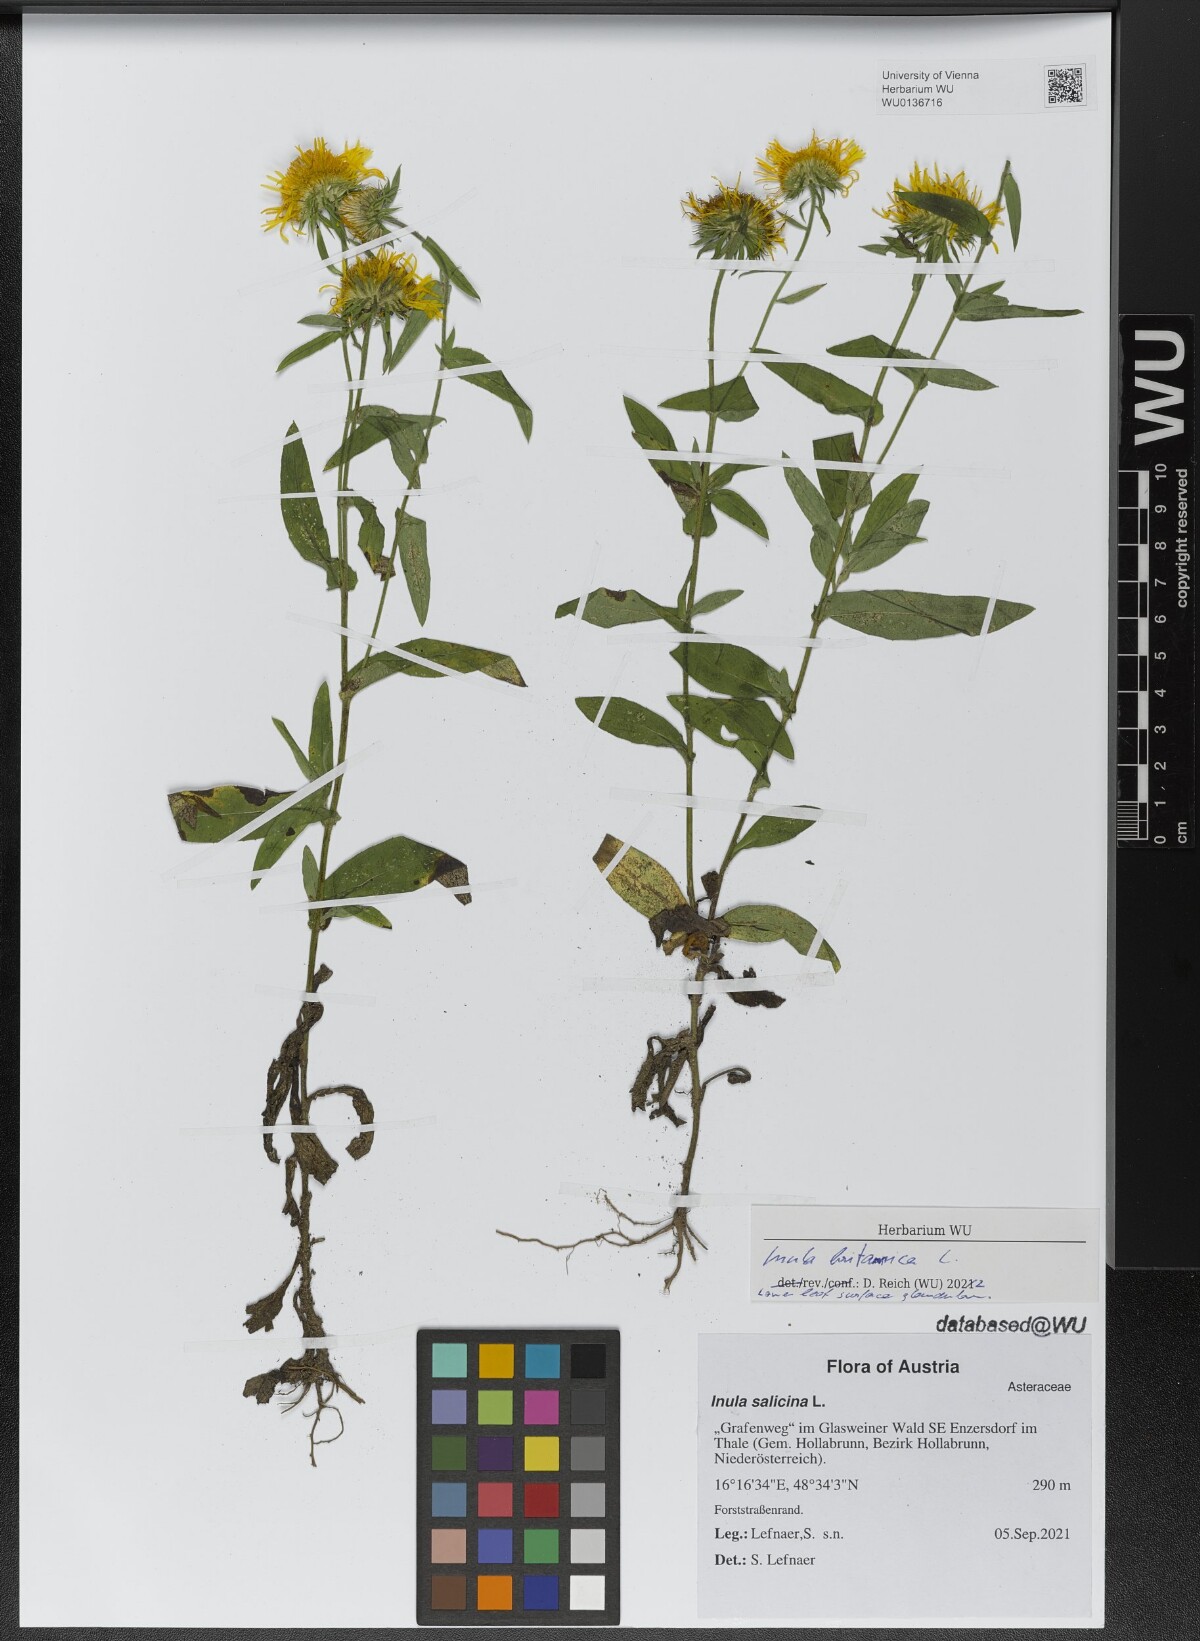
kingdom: Plantae
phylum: Tracheophyta
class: Magnoliopsida
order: Asterales
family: Asteraceae
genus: Pentanema
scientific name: Pentanema britannicum
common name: British elecampane
